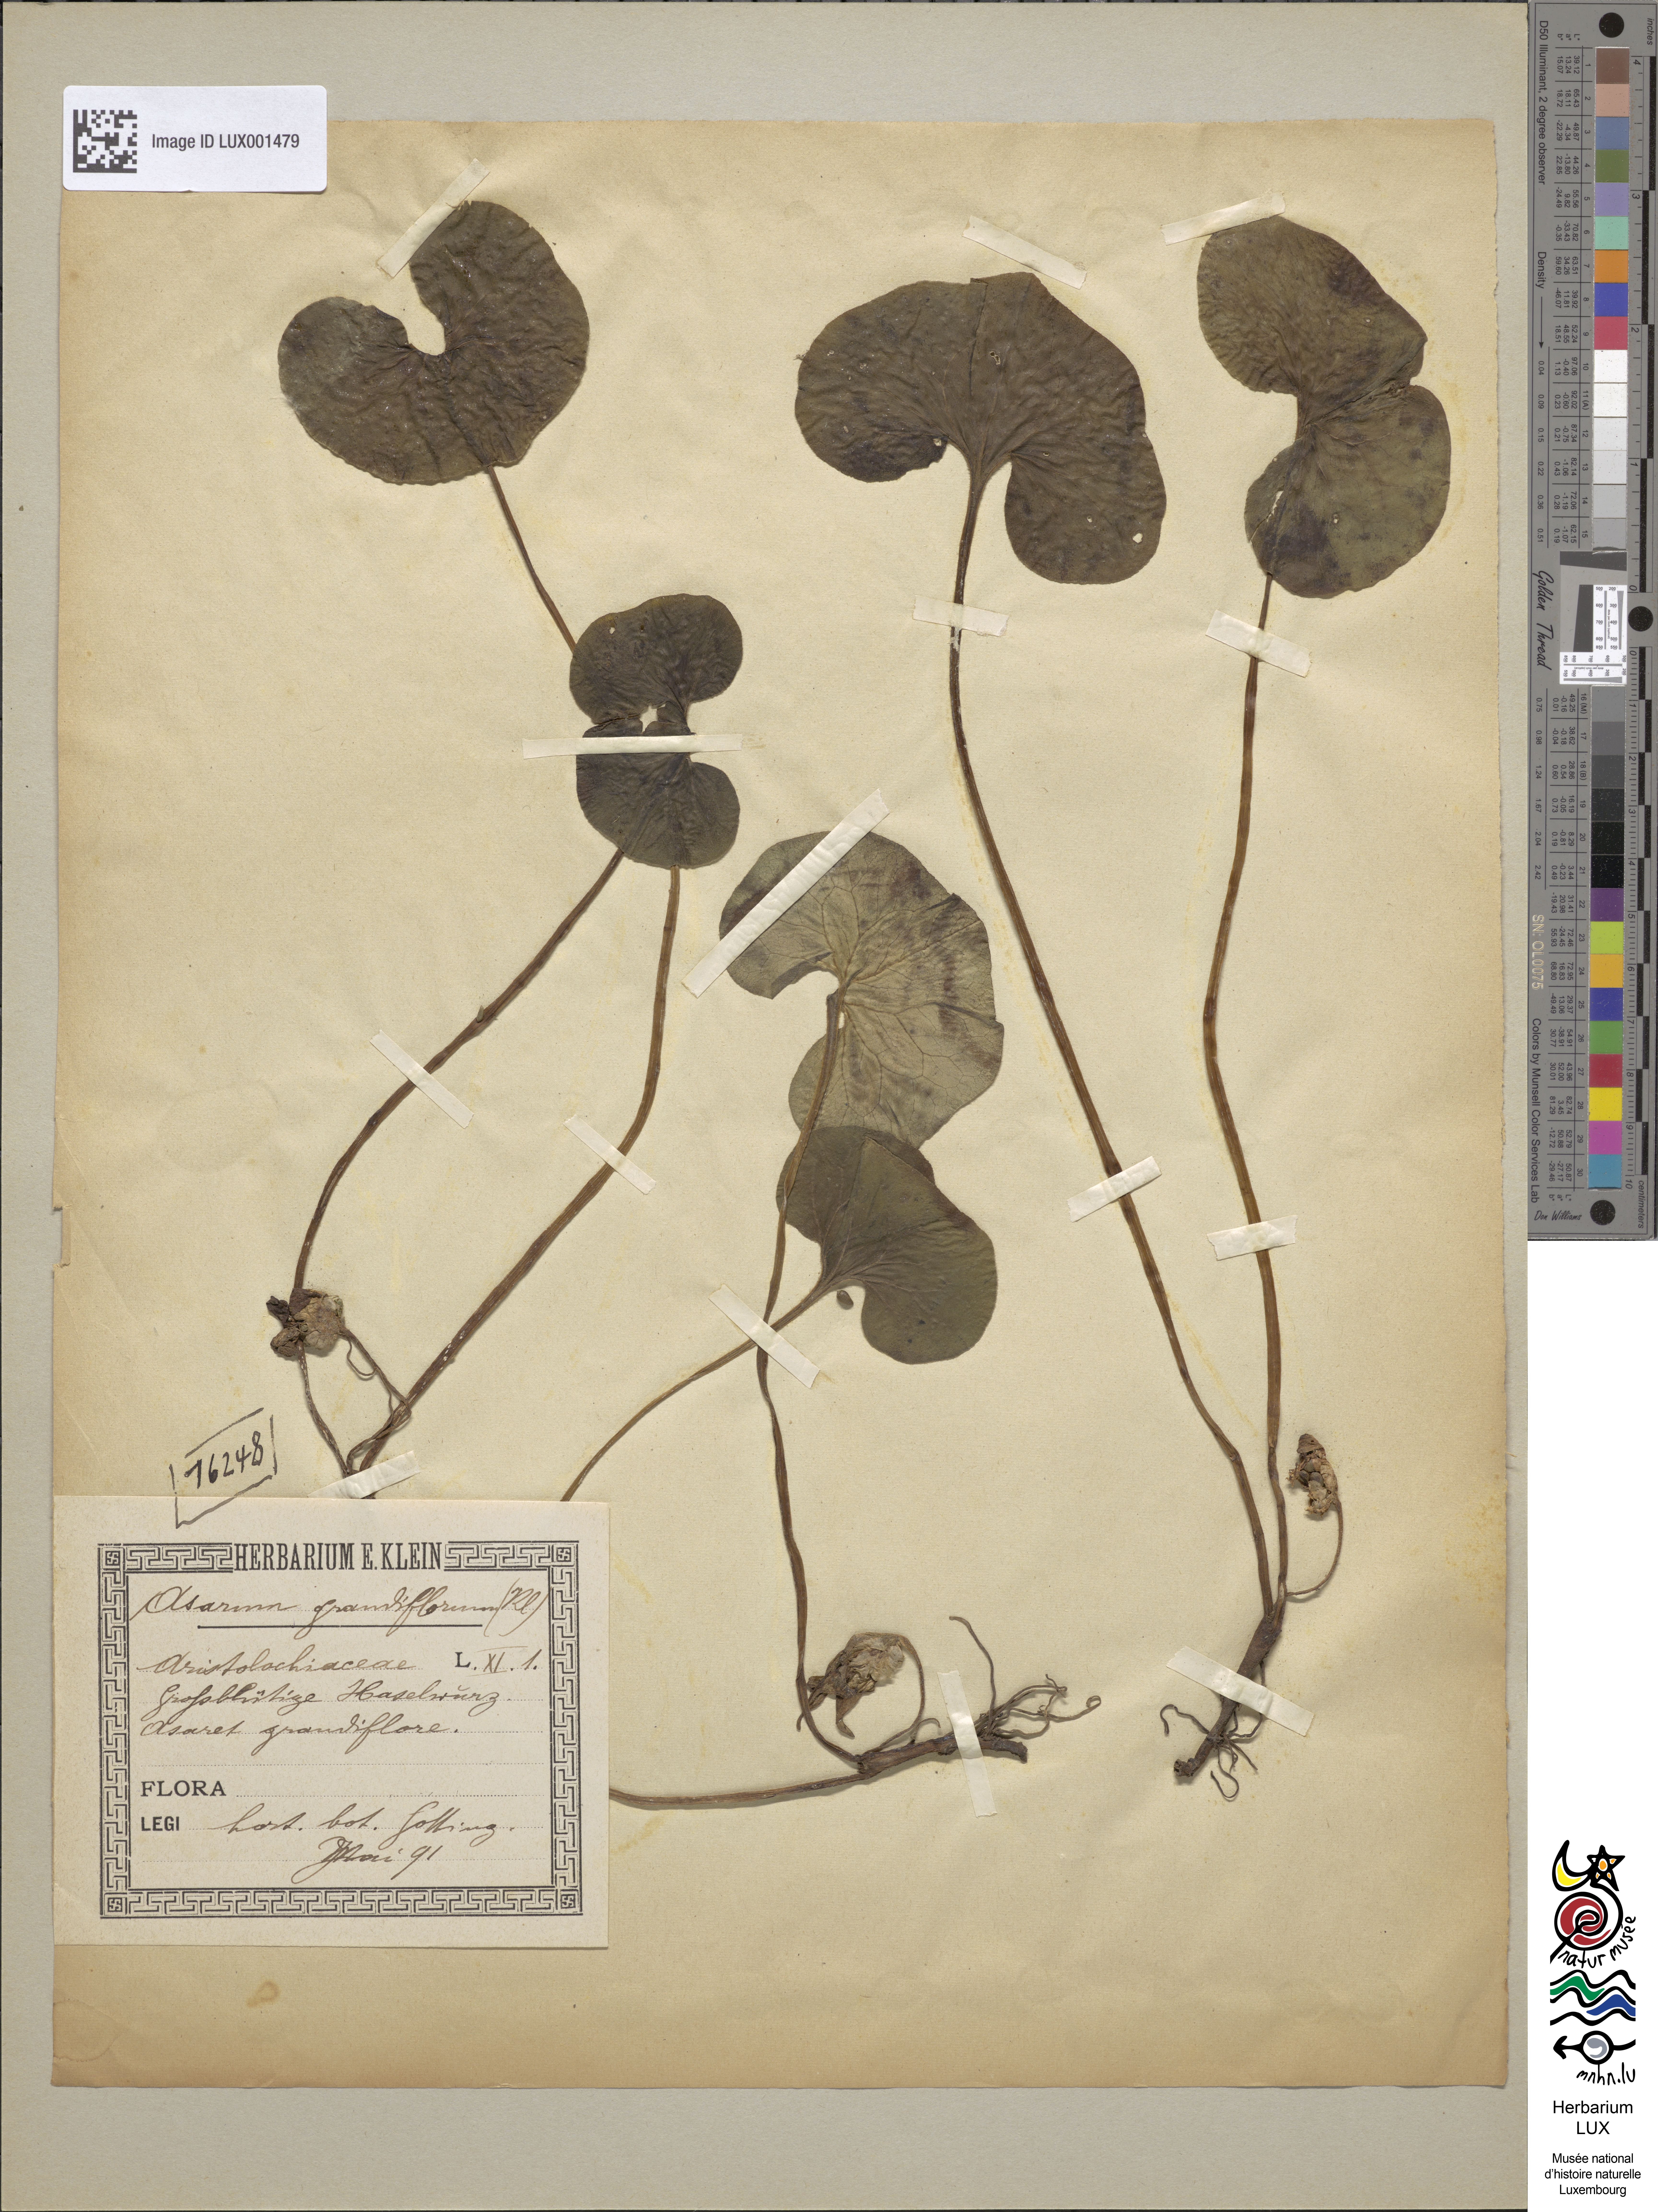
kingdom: Plantae
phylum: Tracheophyta
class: Magnoliopsida
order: Piperales
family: Aristolochiaceae
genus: Hexastylis
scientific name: Hexastylis virginica
